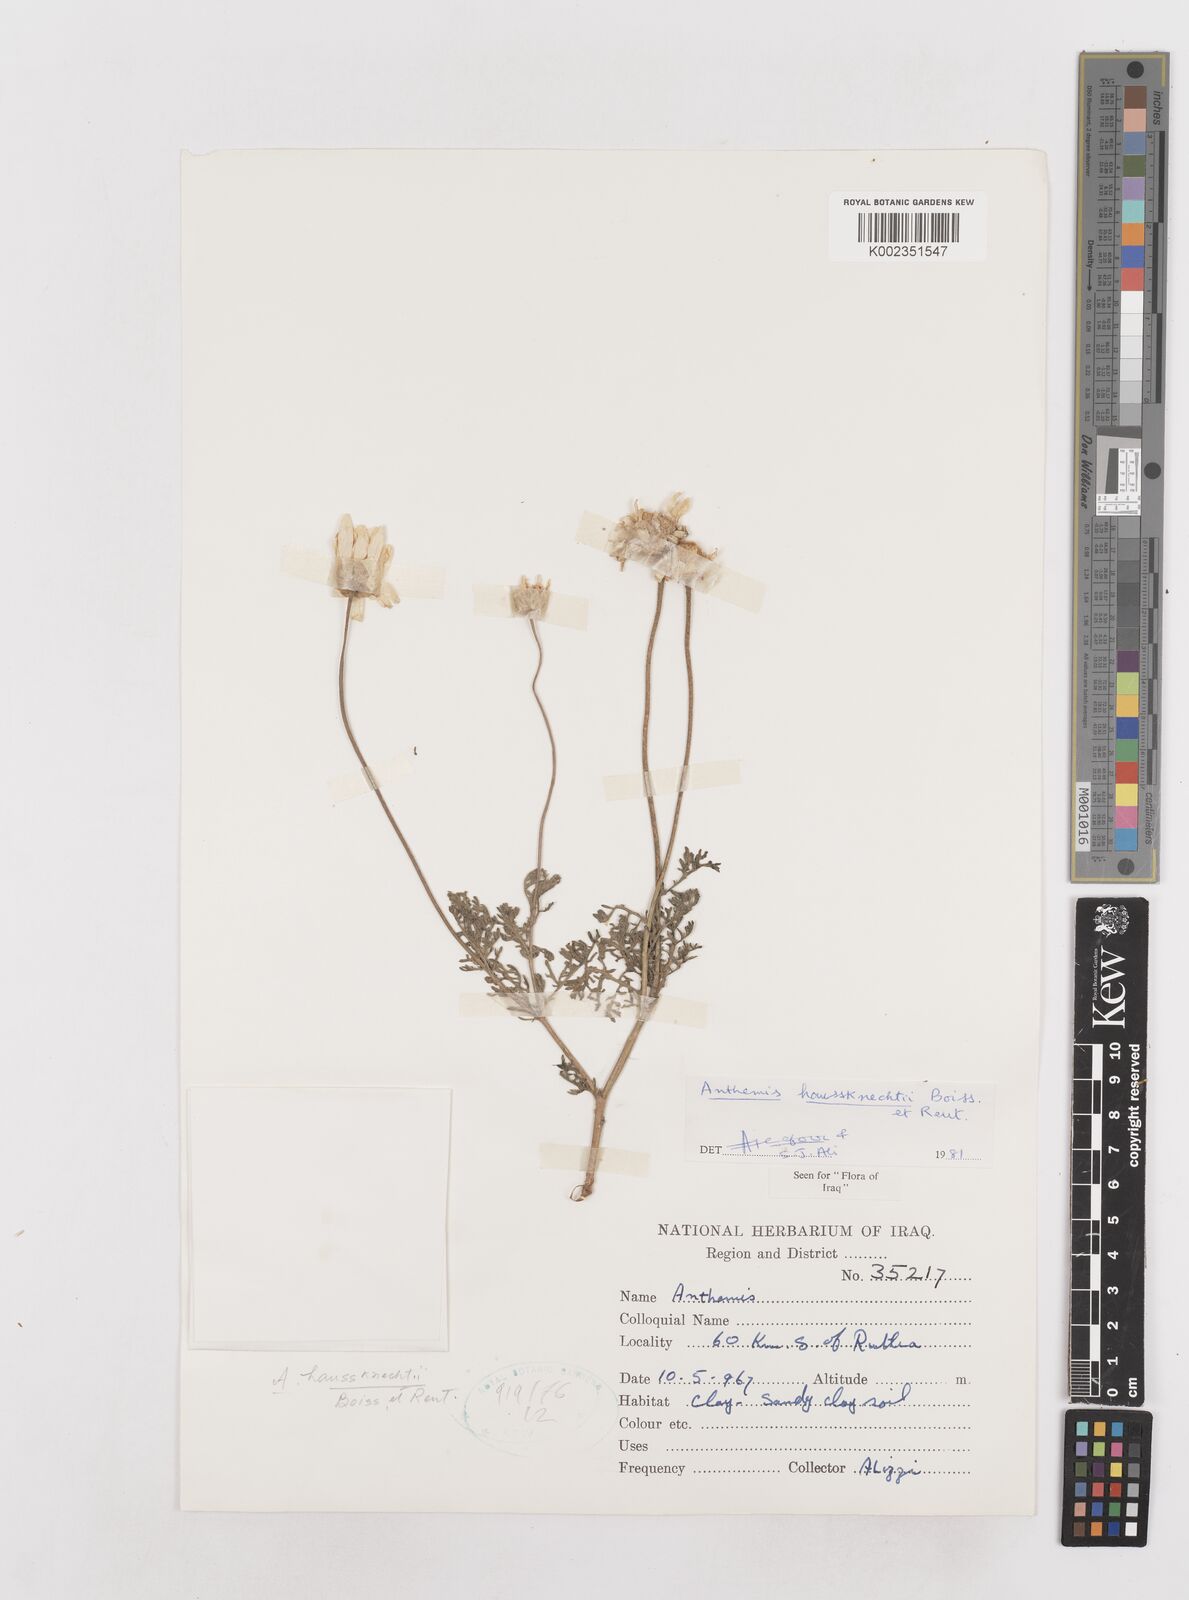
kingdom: Plantae
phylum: Tracheophyta
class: Magnoliopsida
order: Asterales
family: Asteraceae
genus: Anthemis
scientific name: Anthemis haussknechtii
